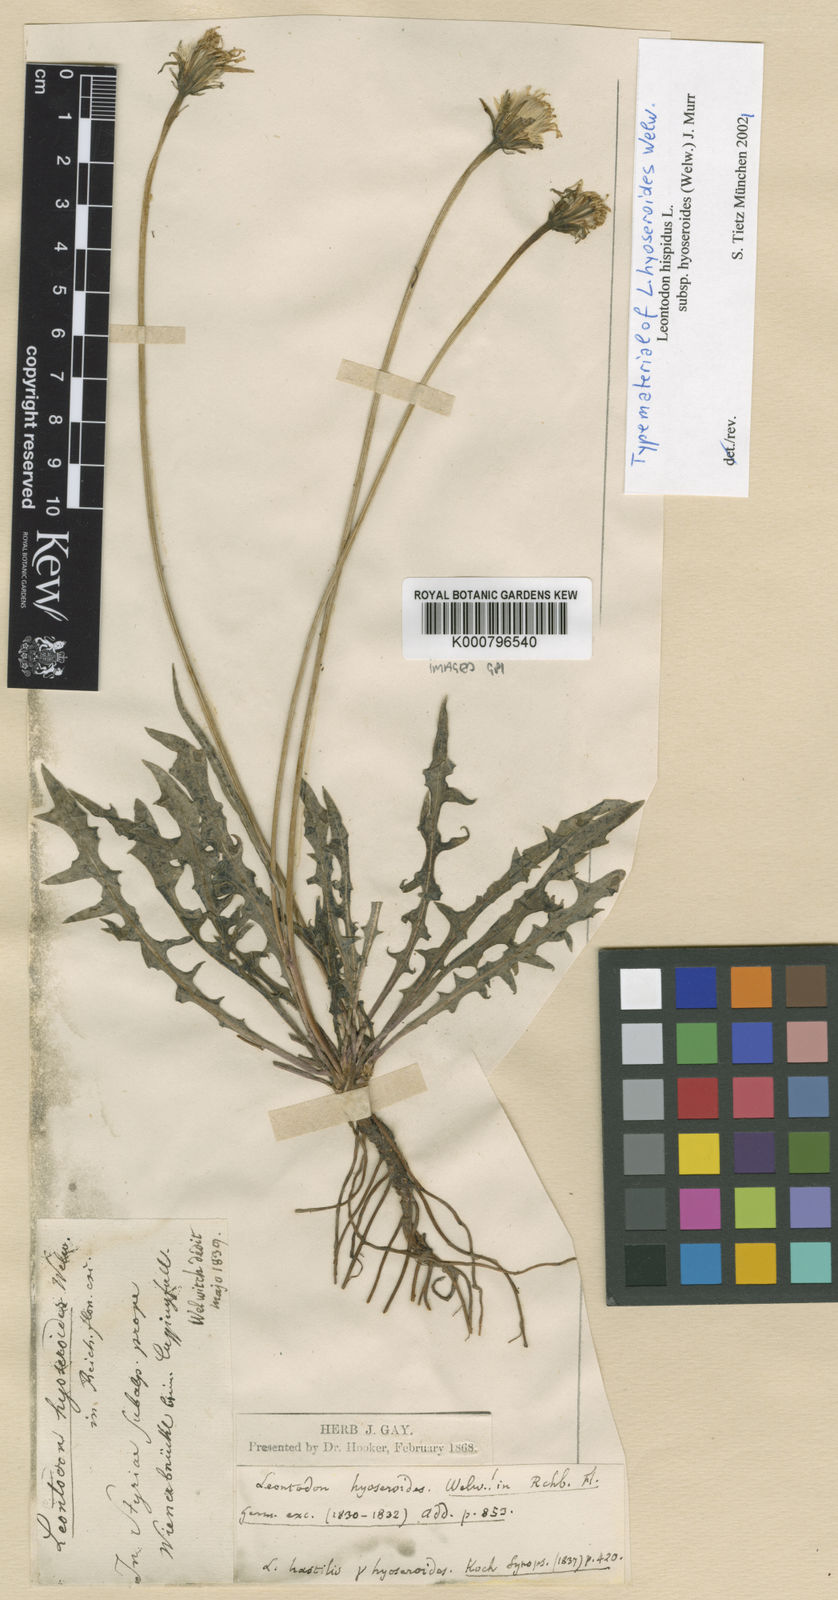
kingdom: Plantae
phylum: Tracheophyta
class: Magnoliopsida
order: Asterales
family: Asteraceae
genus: Leontodon
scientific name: Leontodon hispidus
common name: Rough hawkbit
